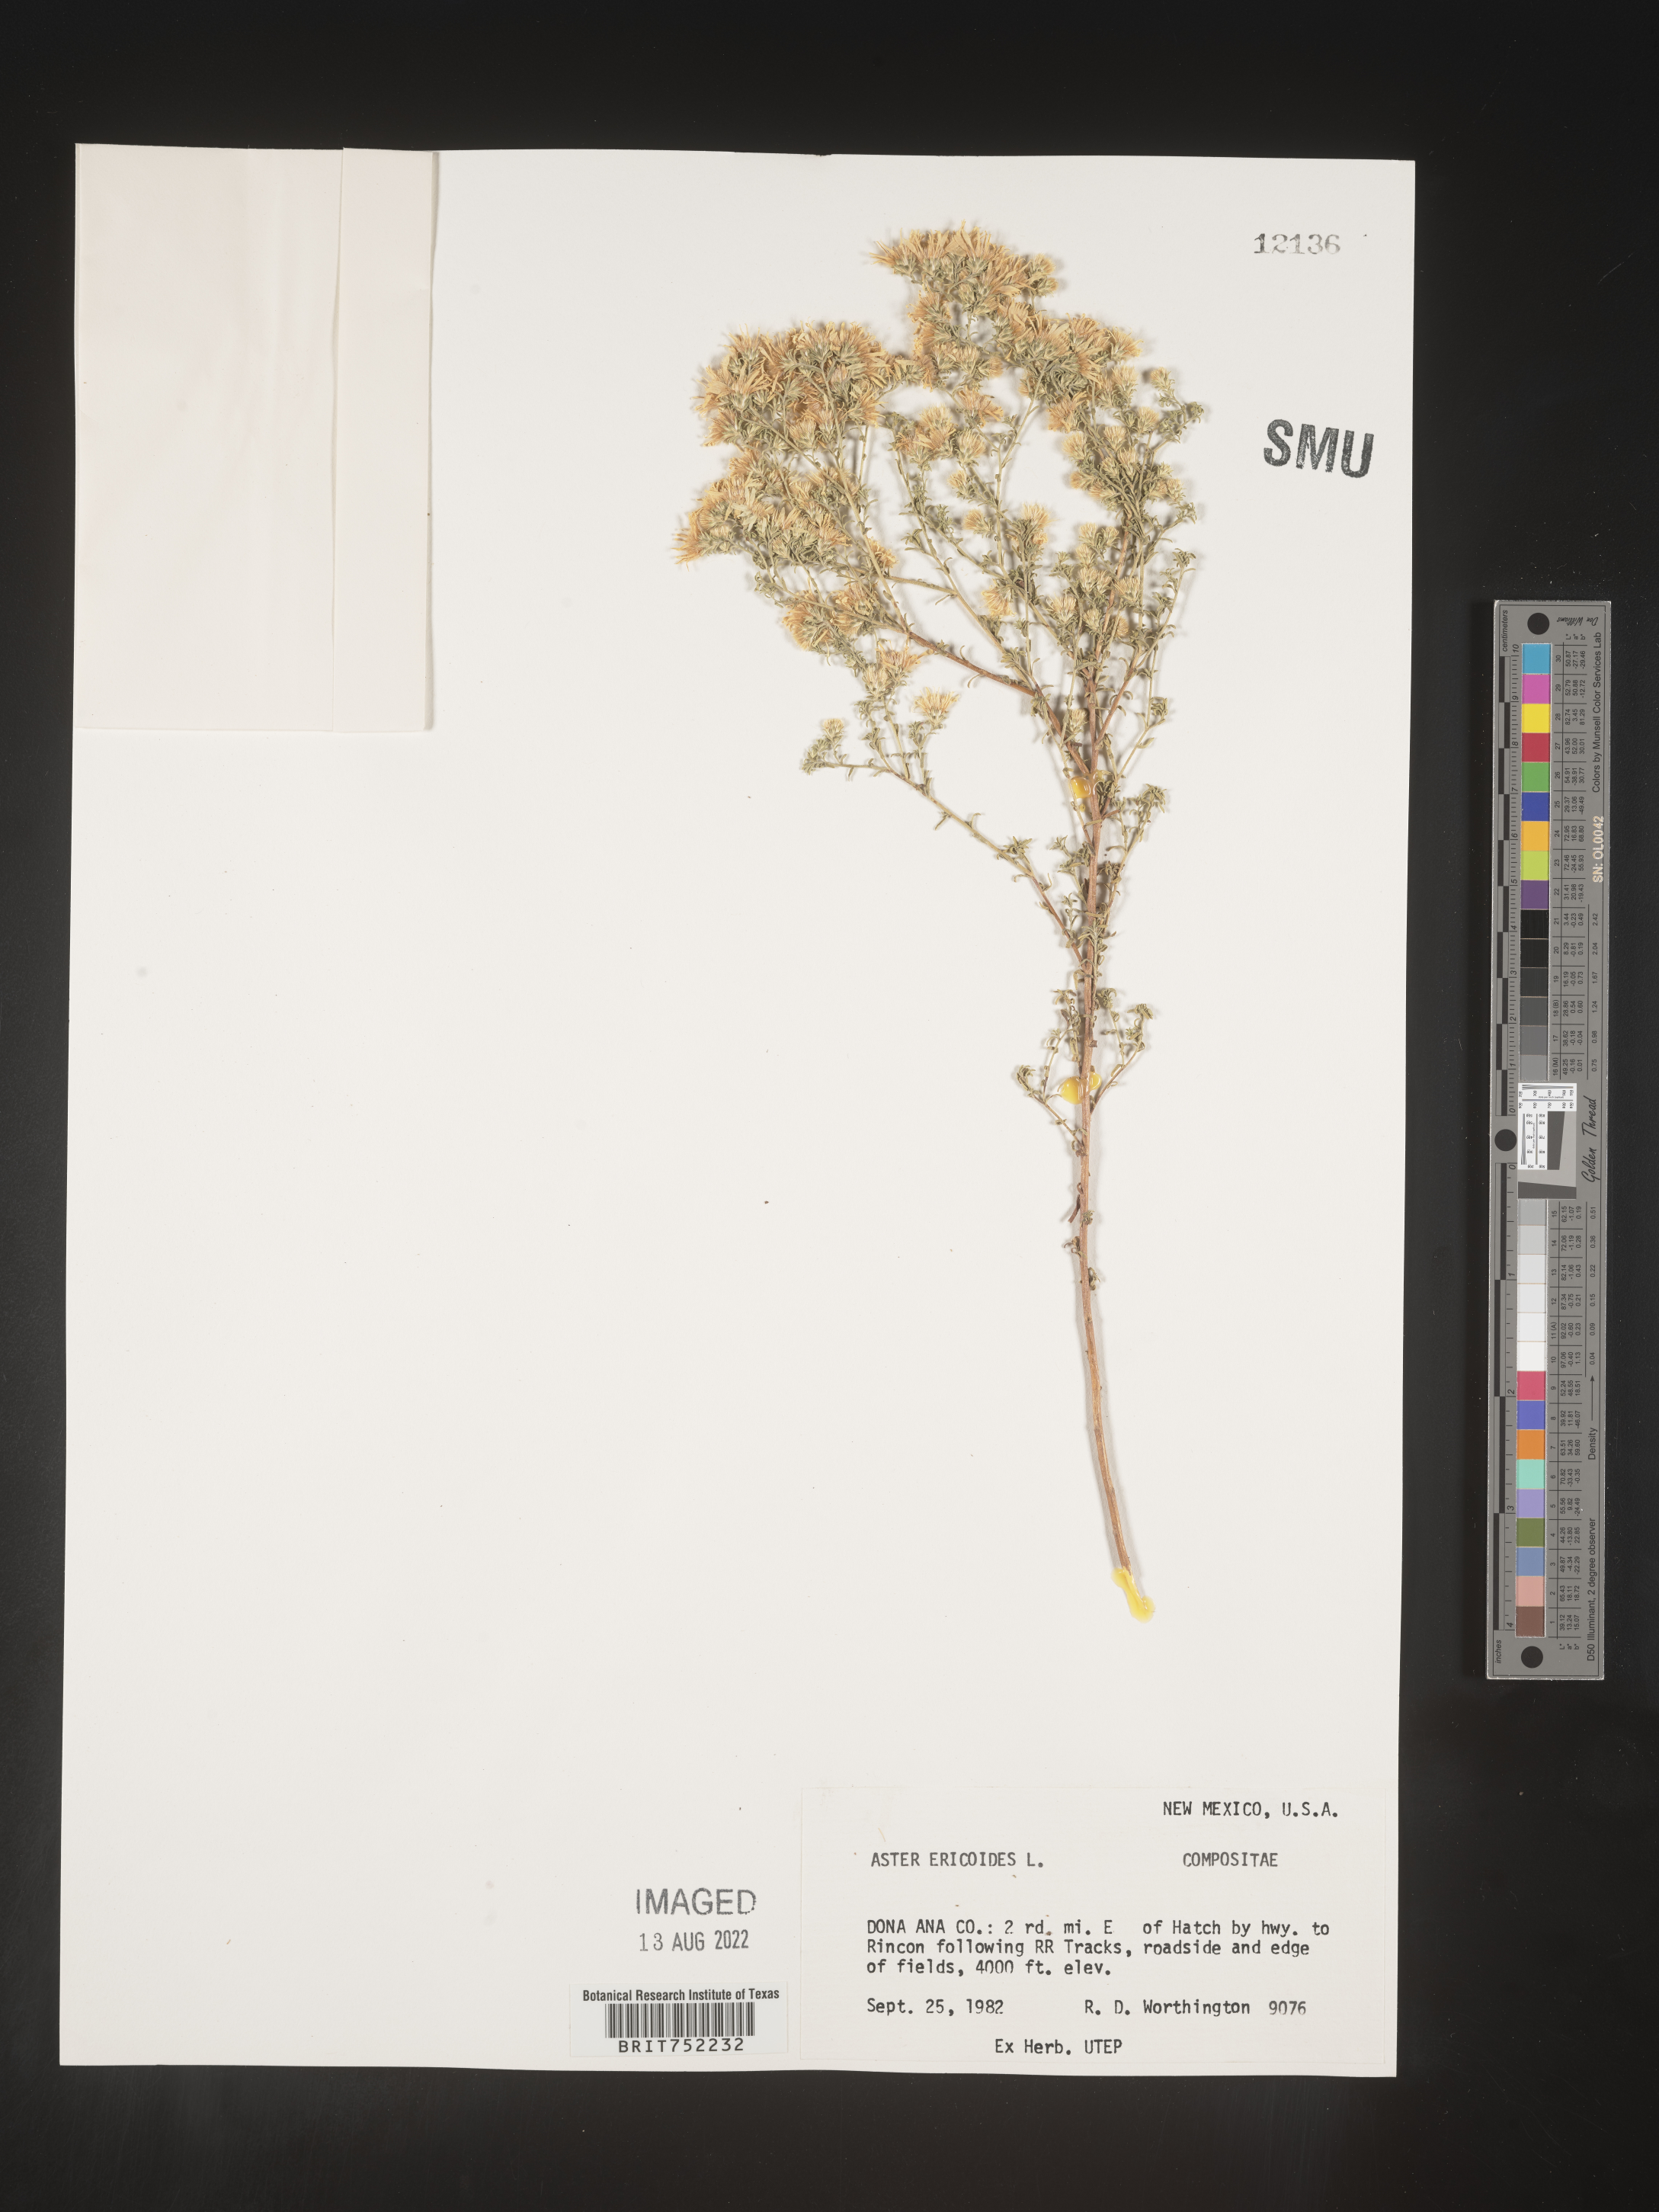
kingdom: Plantae
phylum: Tracheophyta
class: Magnoliopsida
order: Asterales
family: Asteraceae
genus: Symphyotrichum
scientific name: Symphyotrichum ericoides
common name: Heath aster
